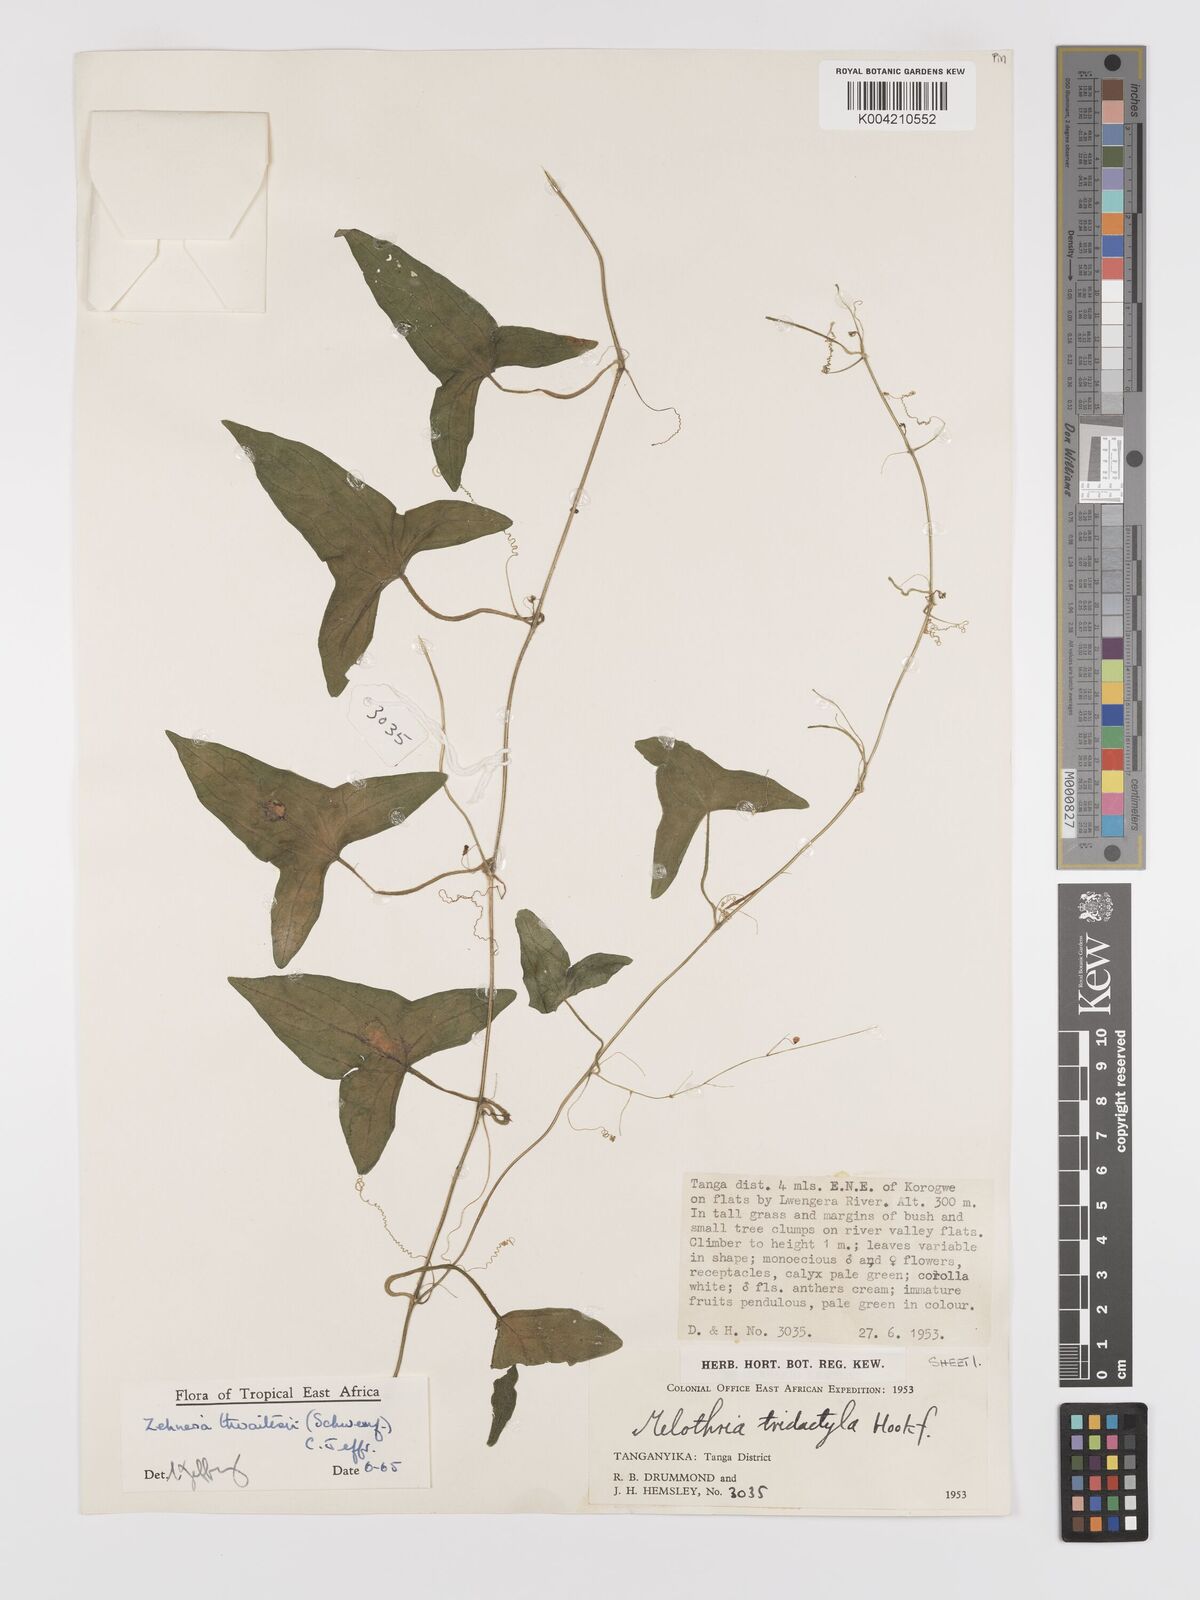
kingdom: Plantae
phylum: Tracheophyta
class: Magnoliopsida
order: Cucurbitales
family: Cucurbitaceae
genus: Zehneria
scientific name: Zehneria thwaitesii
